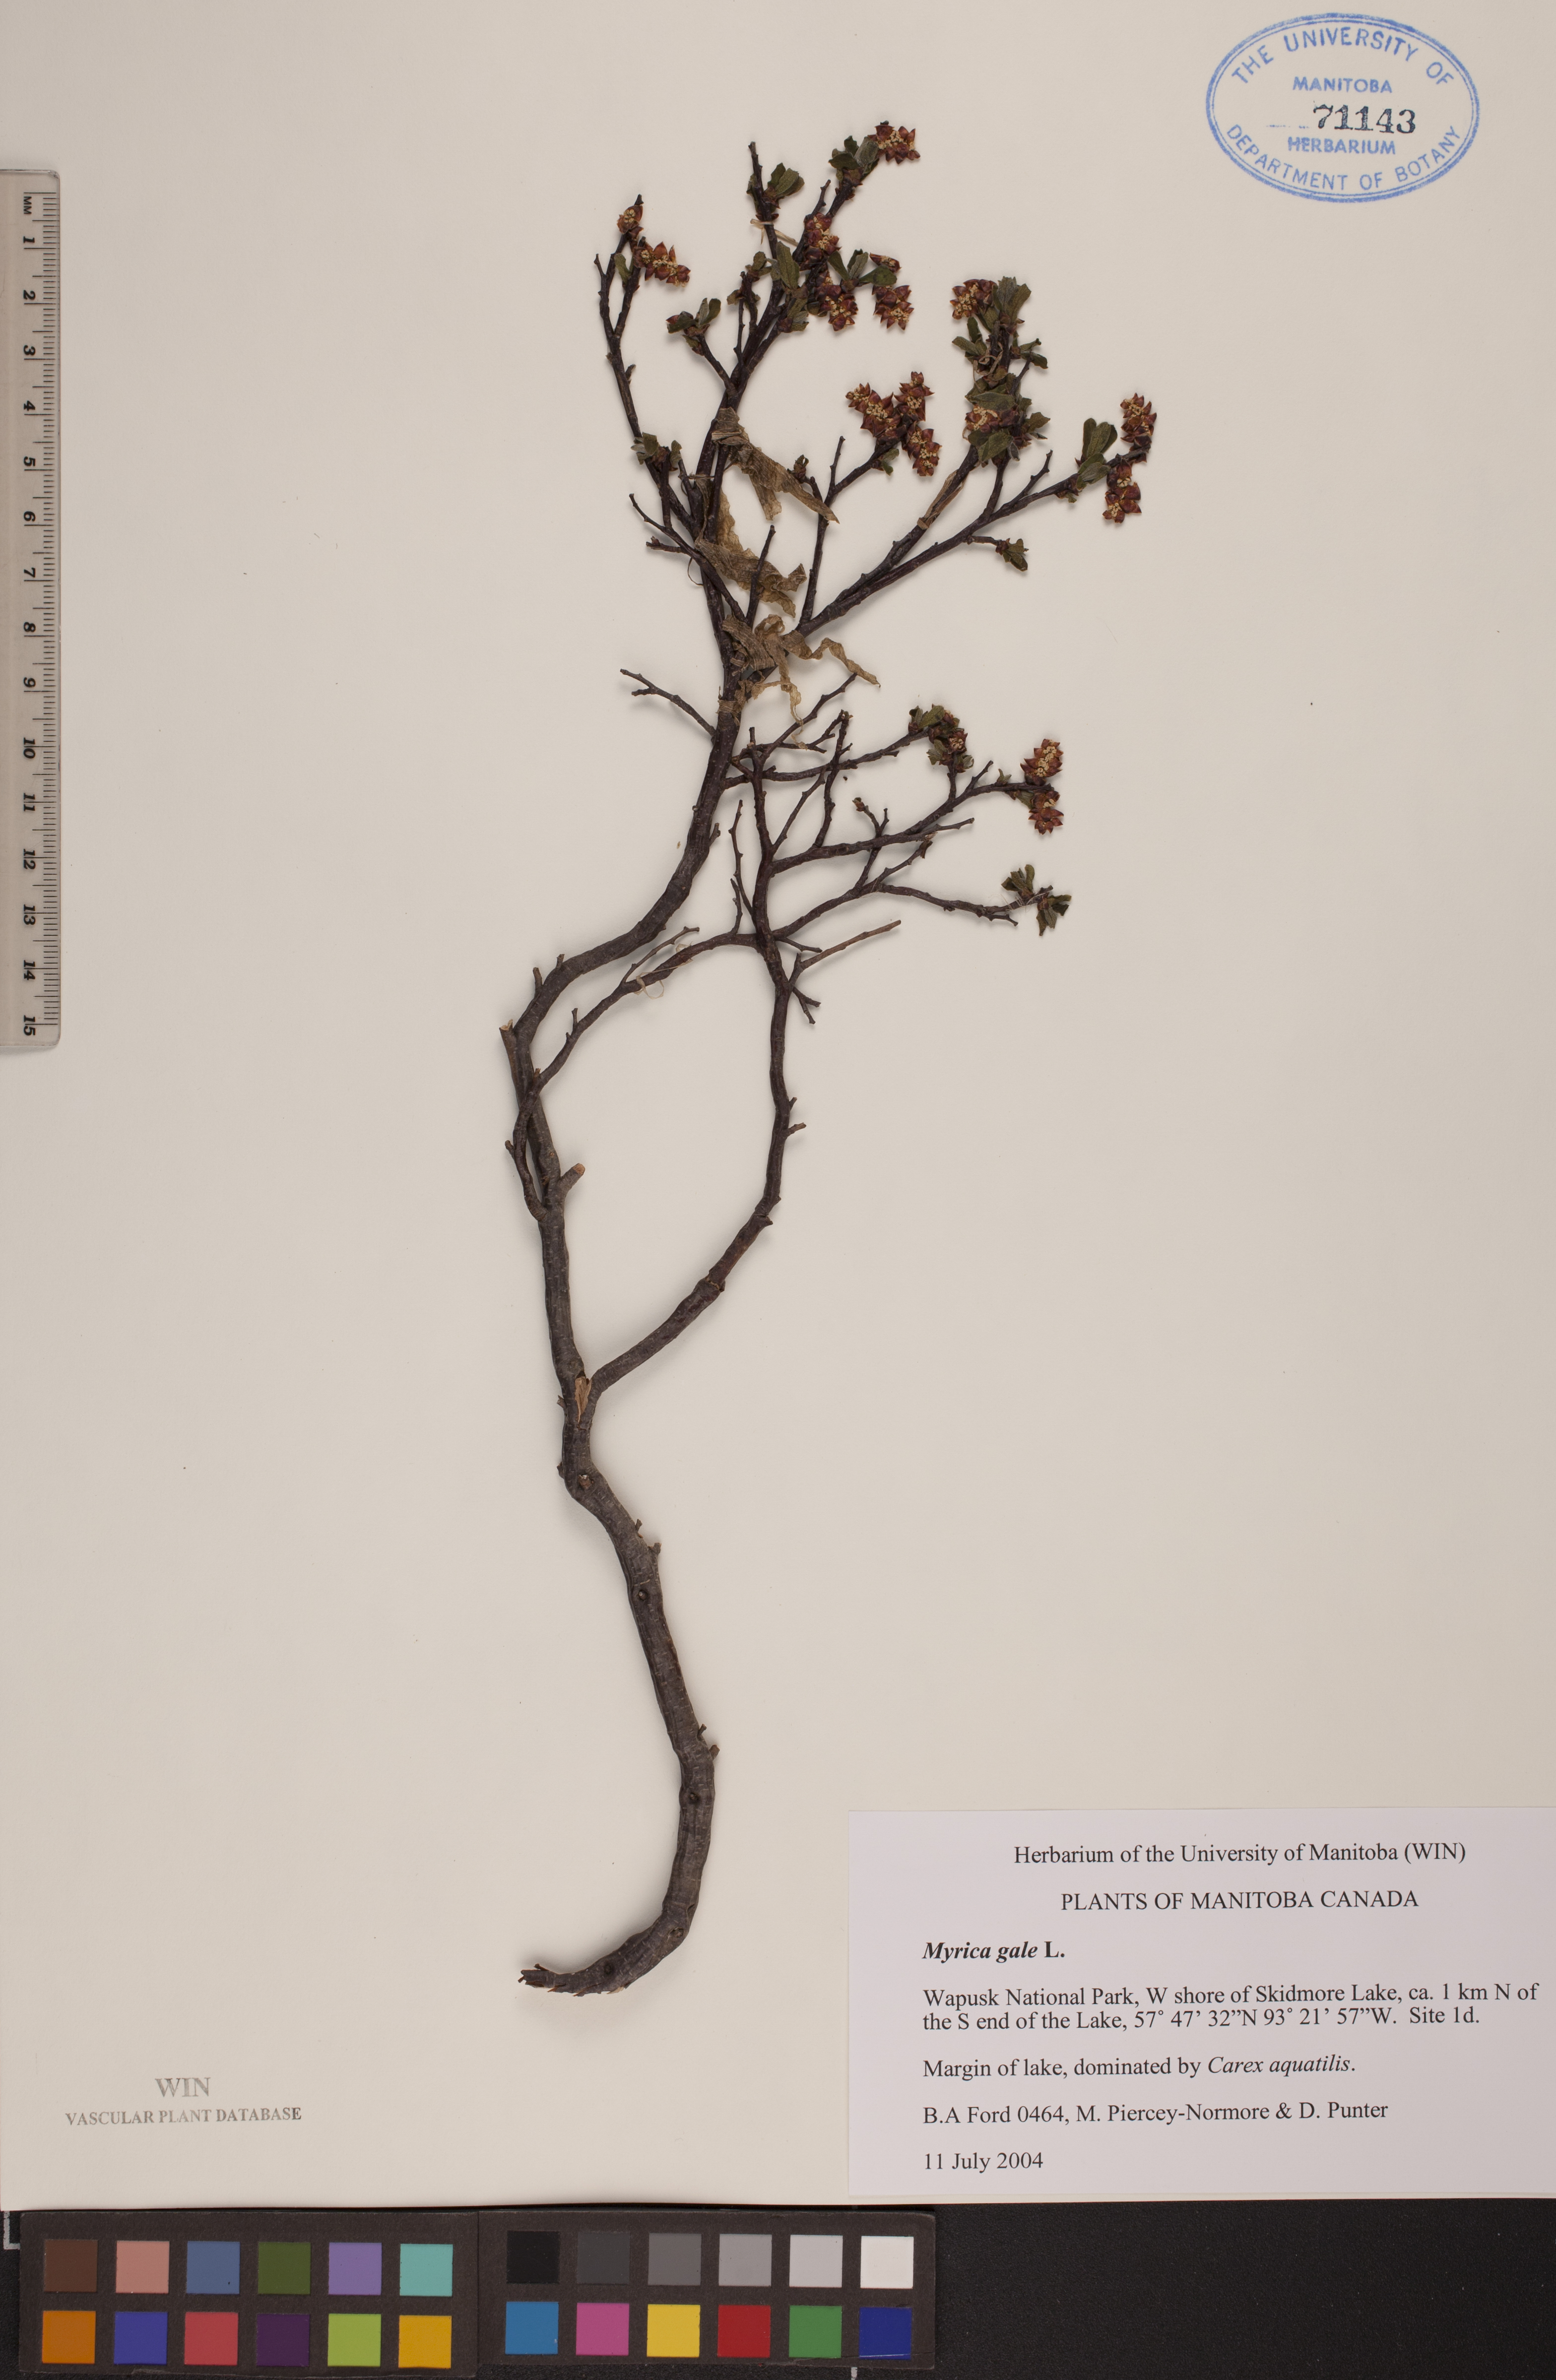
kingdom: Plantae
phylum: Tracheophyta
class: Magnoliopsida
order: Fagales
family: Myricaceae
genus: Myrica
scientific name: Myrica gale
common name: Sweet gale
